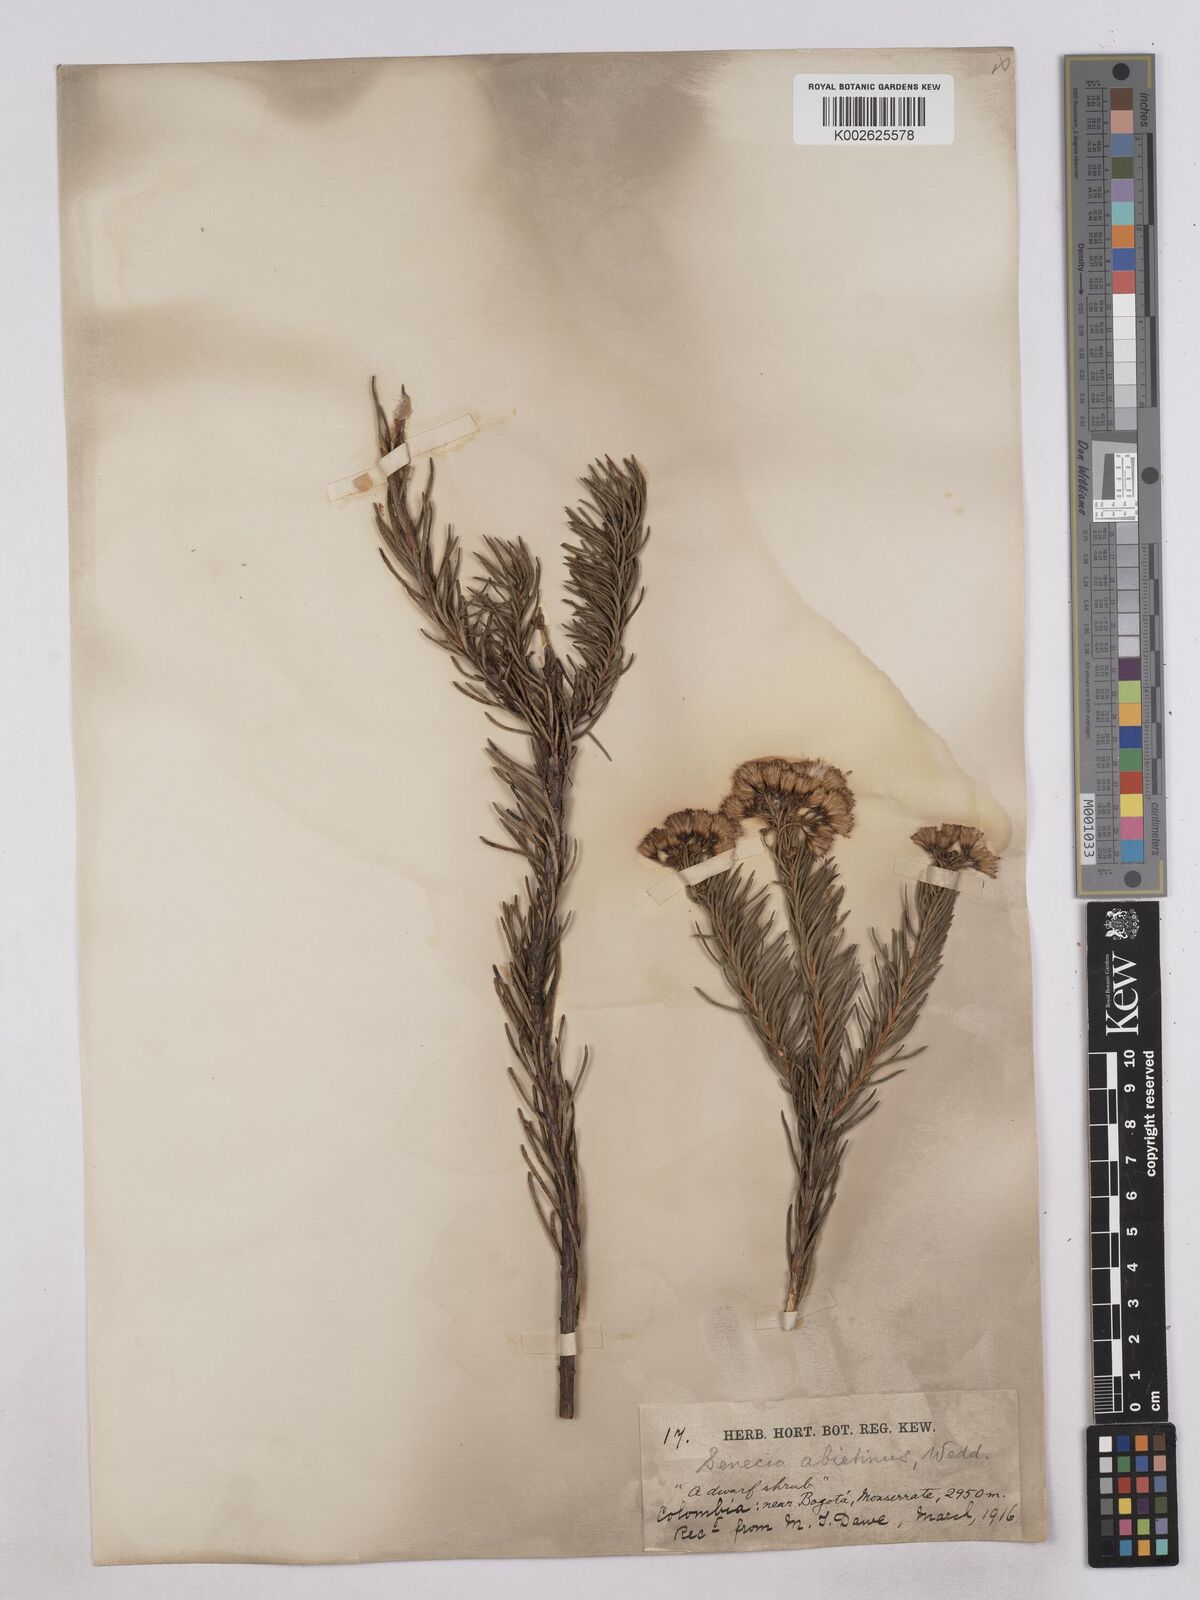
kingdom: Plantae
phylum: Tracheophyta
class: Magnoliopsida
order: Asterales
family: Asteraceae
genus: Monticalia
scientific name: Monticalia abietina
